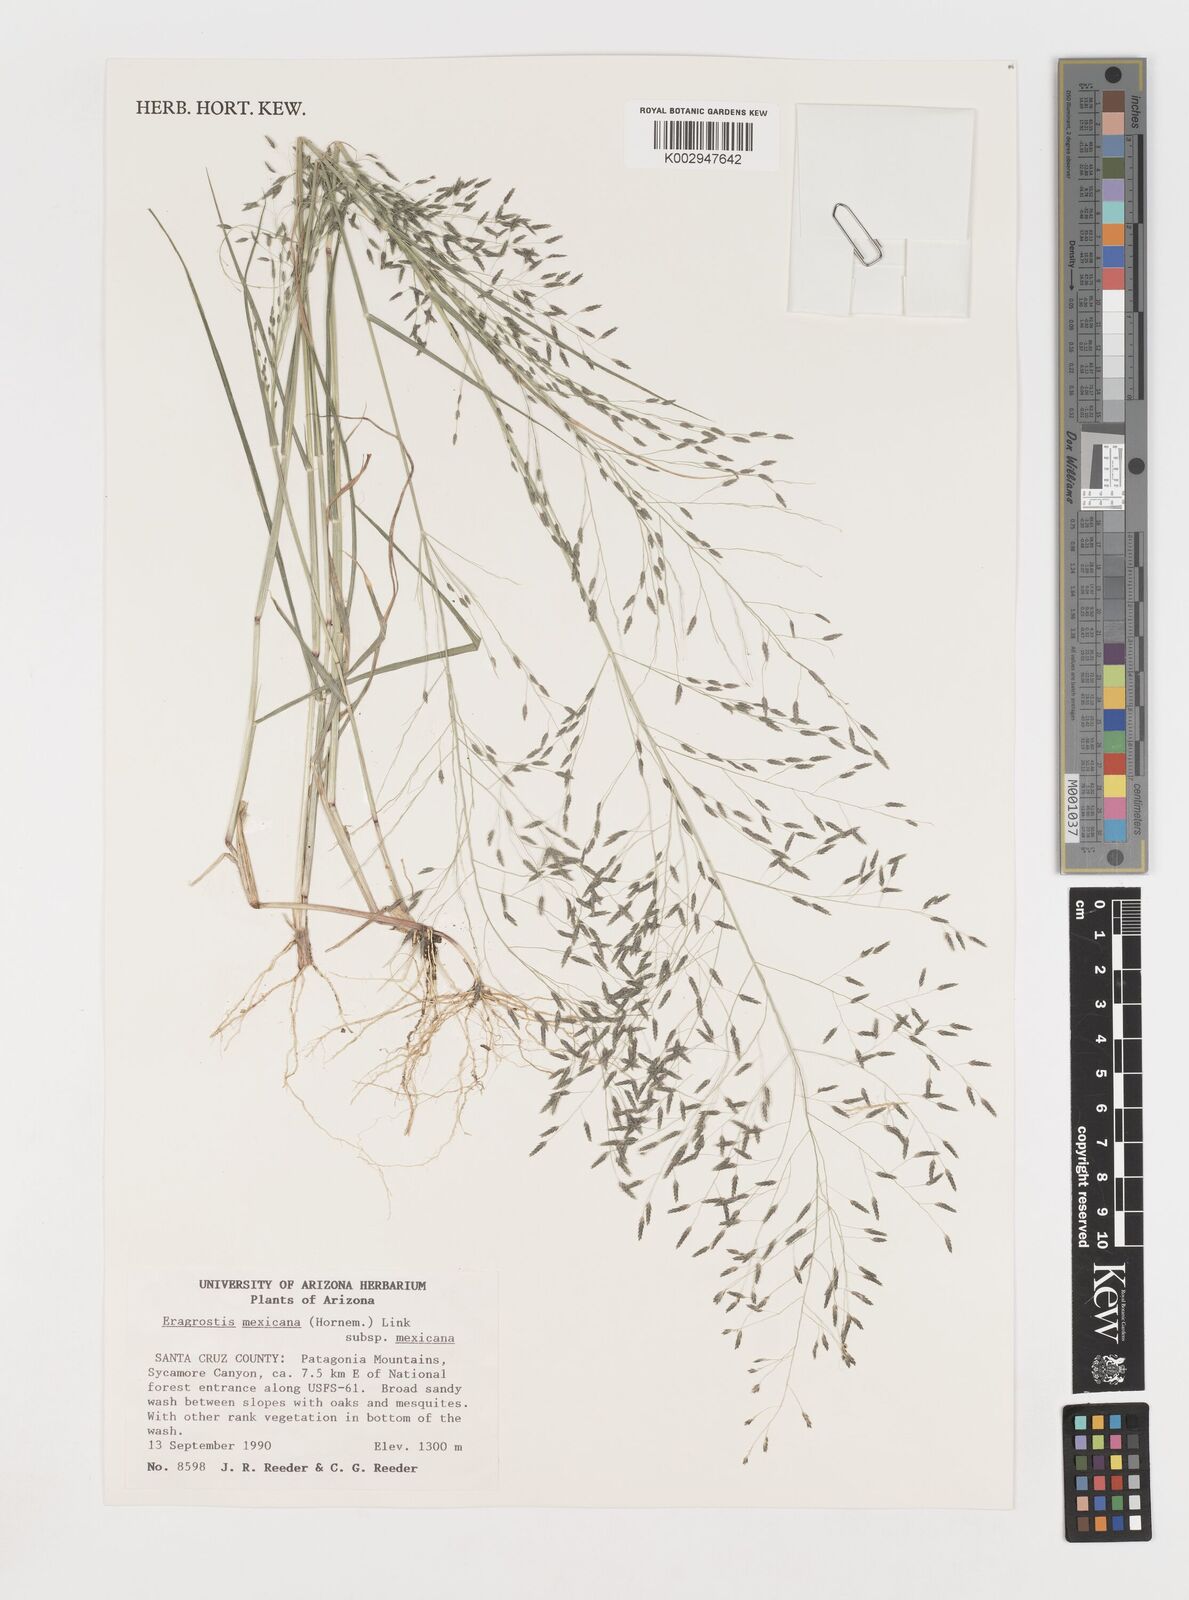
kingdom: Plantae
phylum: Tracheophyta
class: Liliopsida
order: Poales
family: Poaceae
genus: Eragrostis
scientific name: Eragrostis mexicana
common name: Mexican love grass
